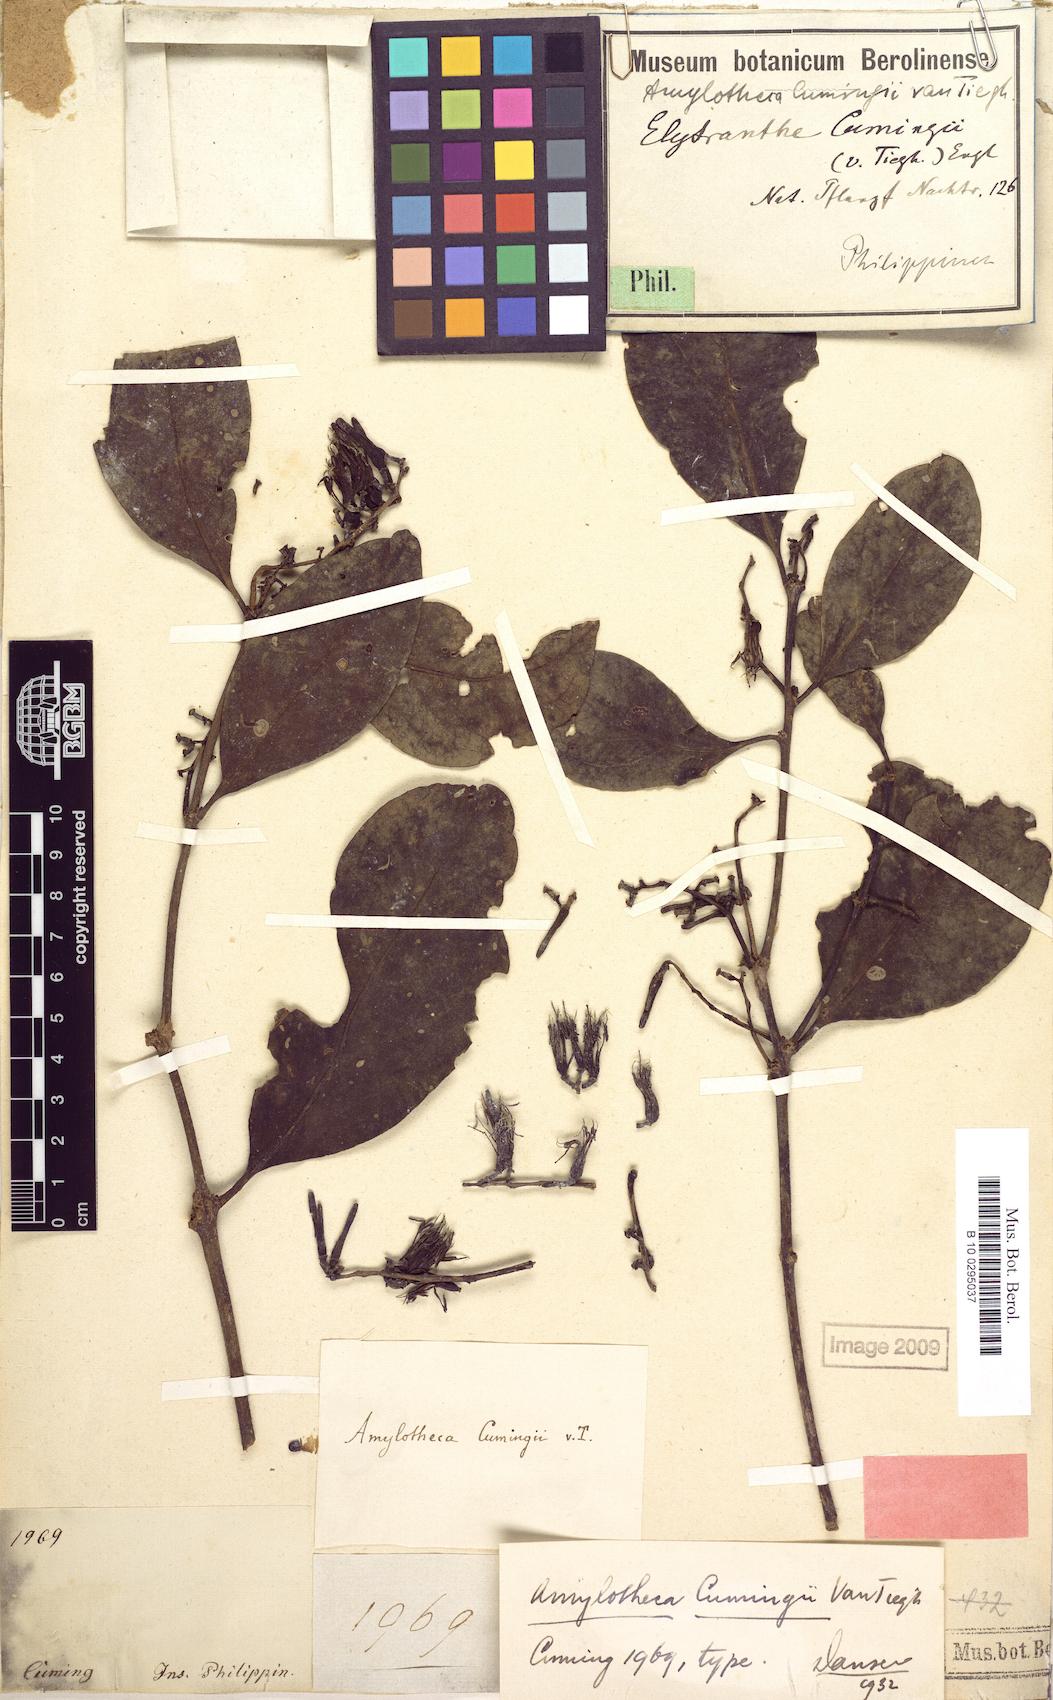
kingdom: Plantae
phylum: Tracheophyta
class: Magnoliopsida
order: Santalales
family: Loranthaceae
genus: Decaisnina
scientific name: Decaisnina cumingii
